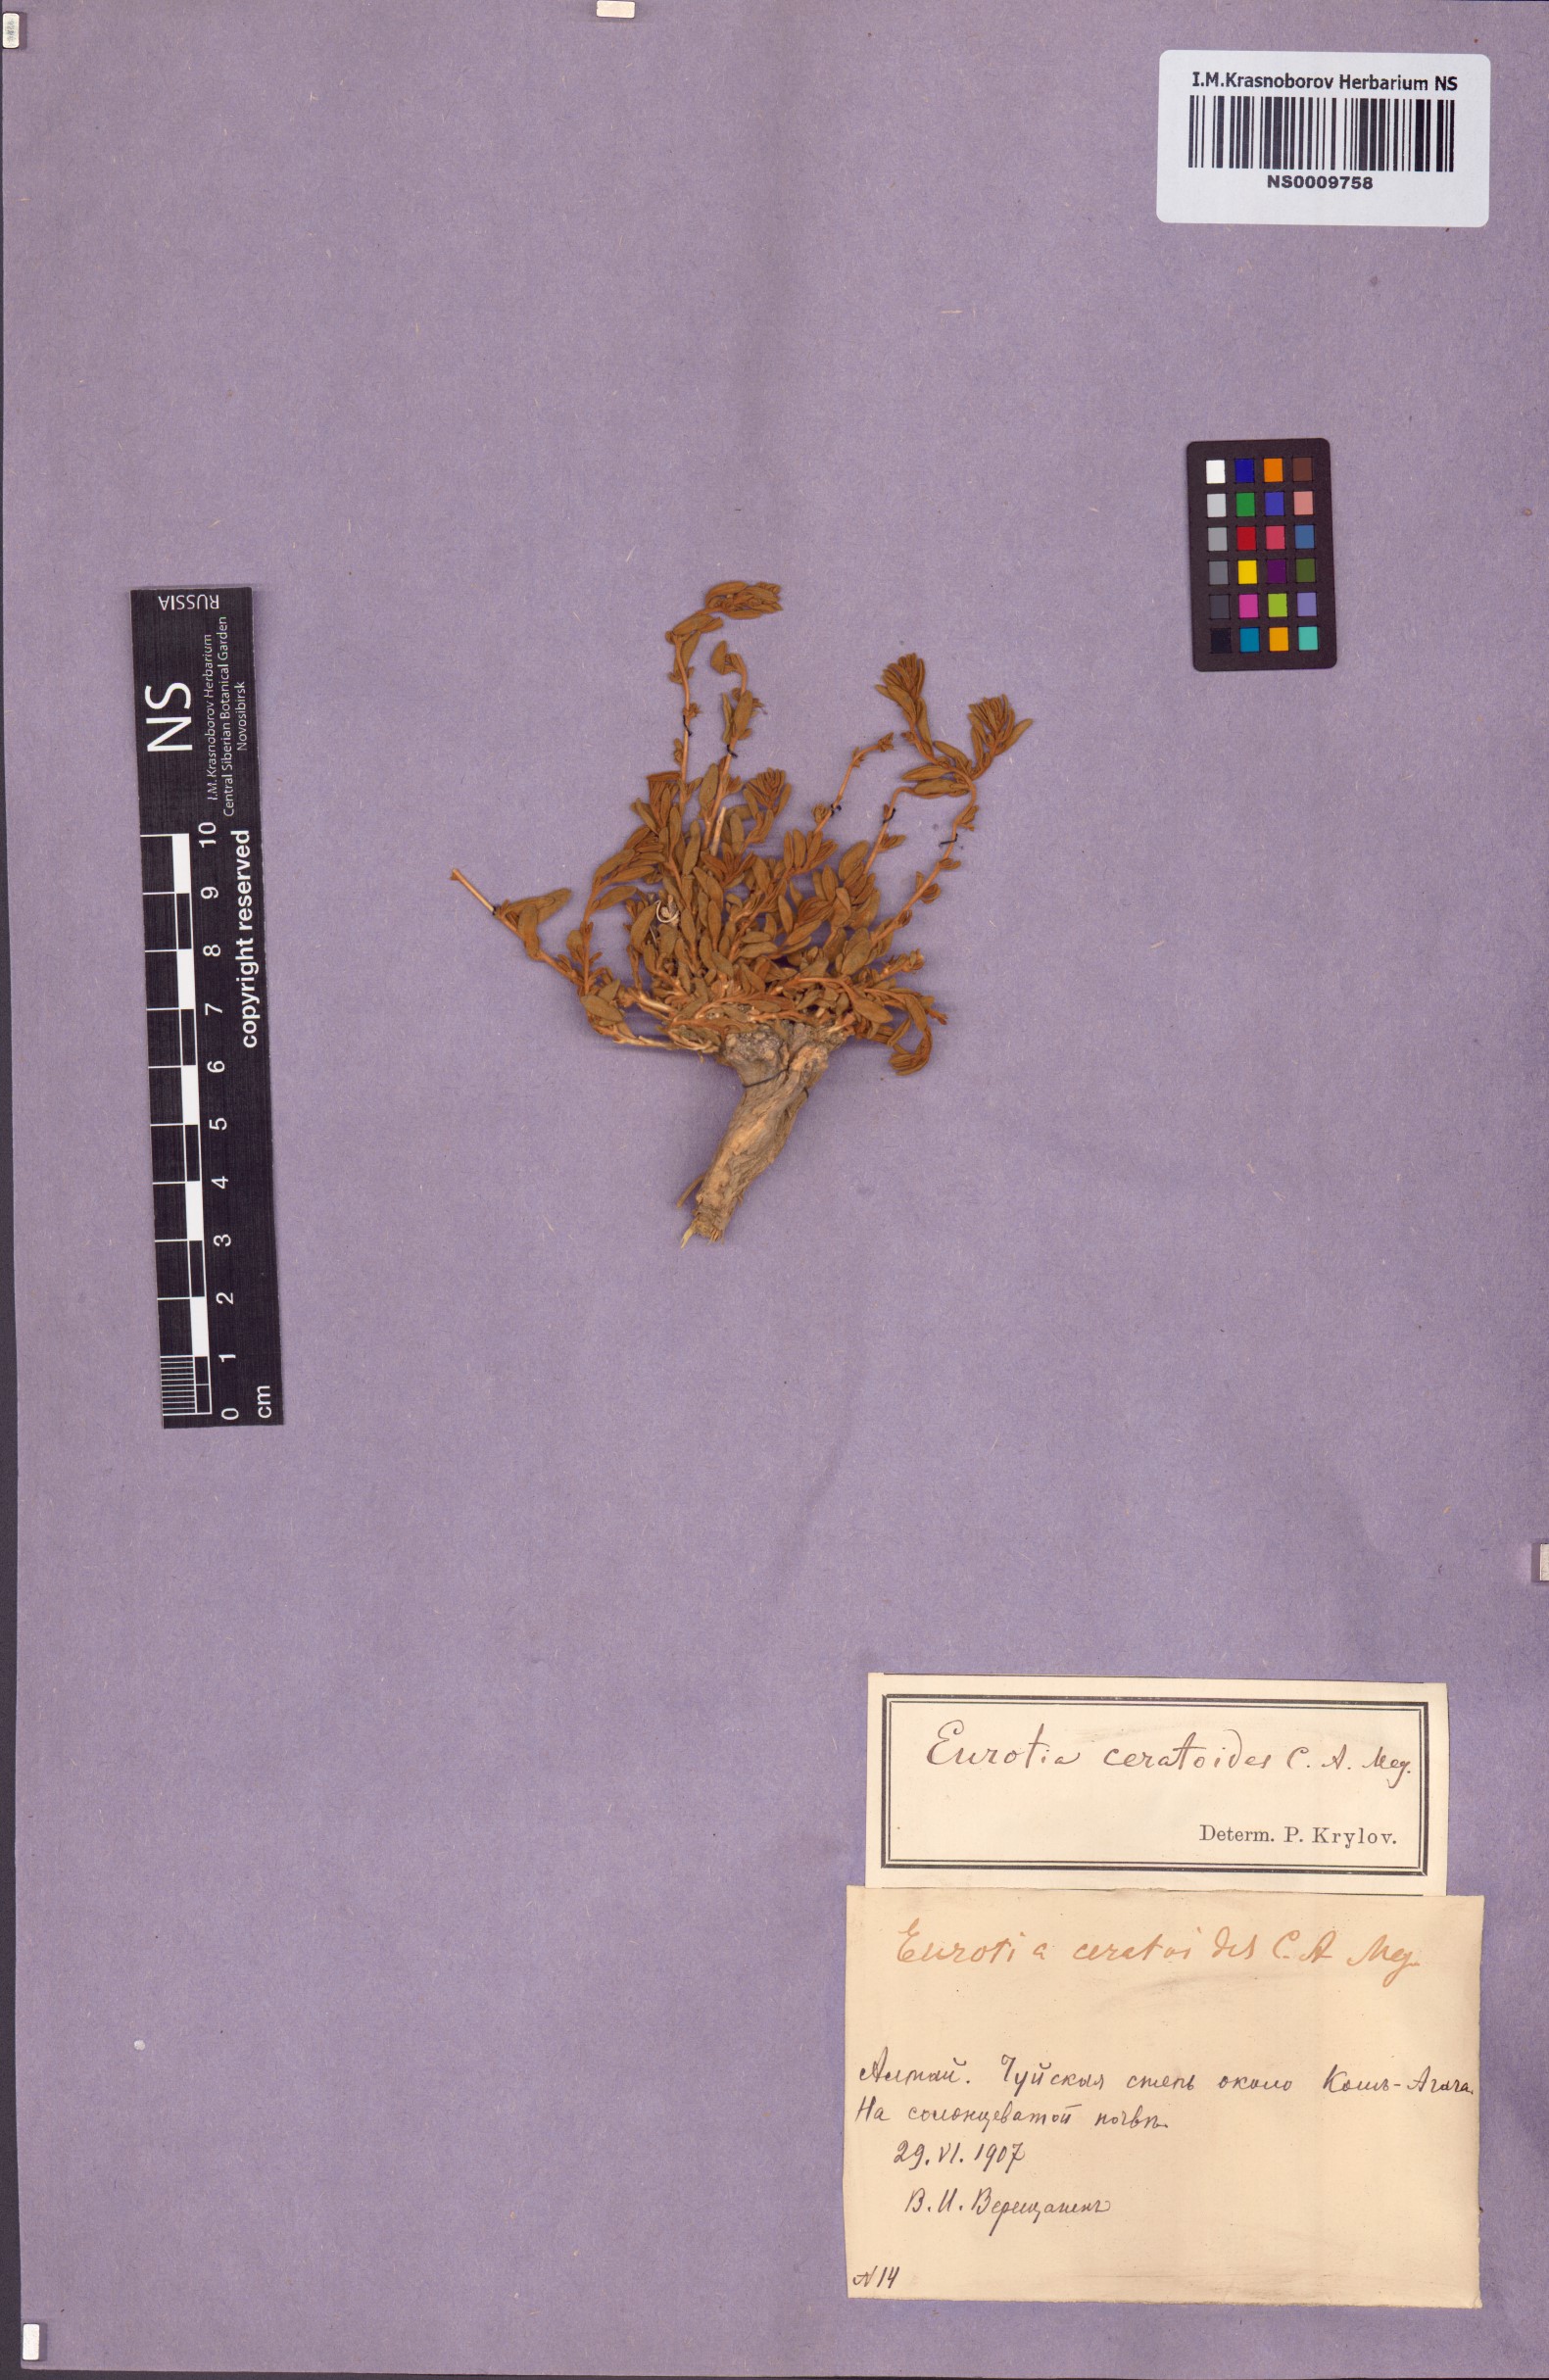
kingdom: Plantae
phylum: Tracheophyta
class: Magnoliopsida
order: Caryophyllales
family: Amaranthaceae
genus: Krascheninnikovia
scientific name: Krascheninnikovia ceratoides
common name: Pamirian winterfat
